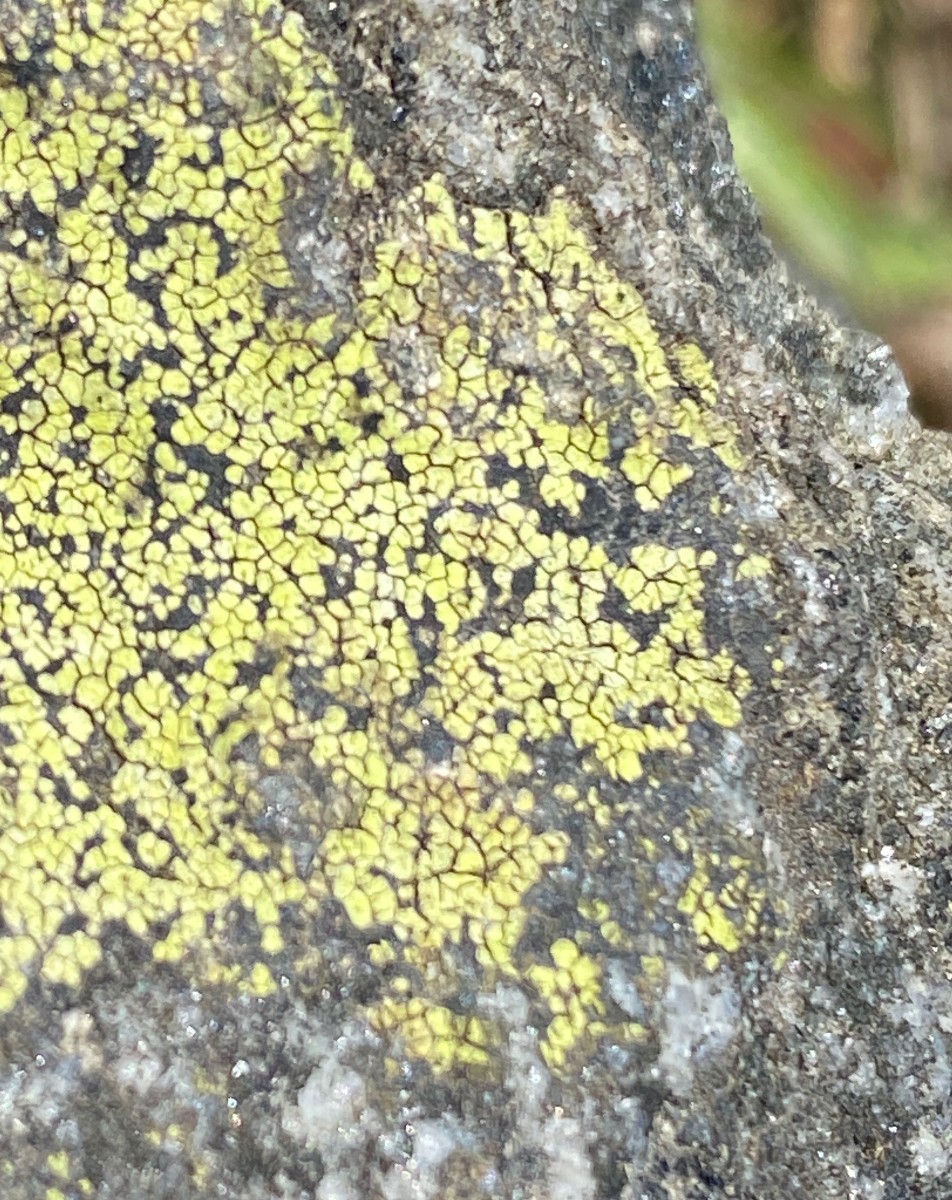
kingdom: Fungi
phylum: Ascomycota
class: Lecanoromycetes
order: Rhizocarpales
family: Rhizocarpaceae
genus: Rhizocarpon
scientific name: Rhizocarpon geographicum
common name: gulgrøn landkortlav
